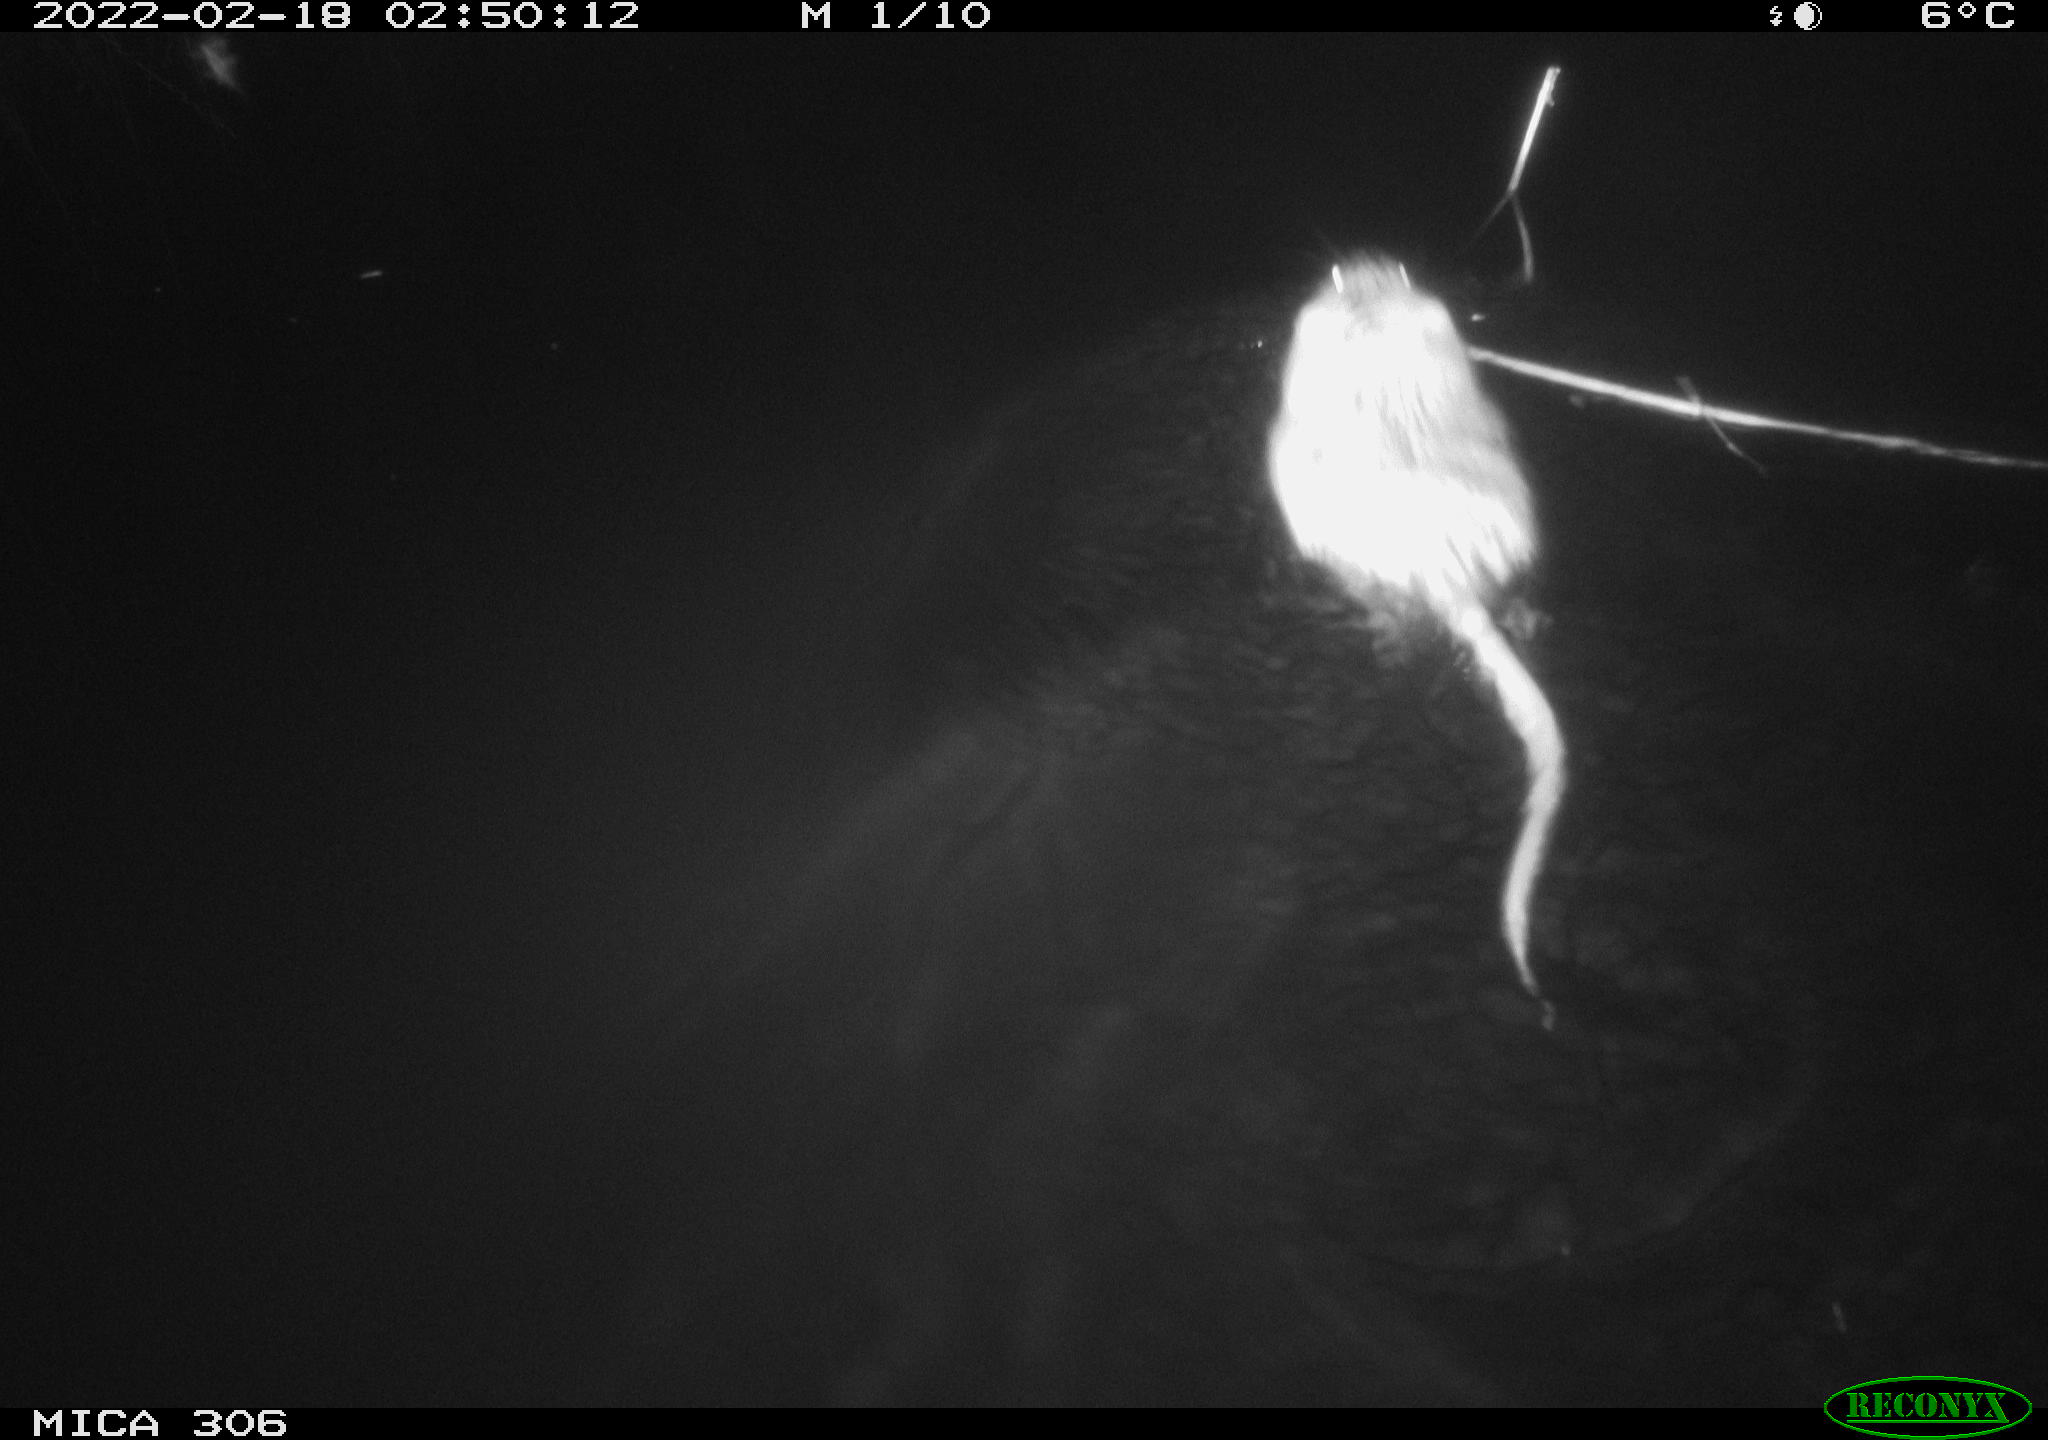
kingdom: Animalia
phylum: Chordata
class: Mammalia
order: Rodentia
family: Cricetidae
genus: Ondatra
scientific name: Ondatra zibethicus
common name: Muskrat
